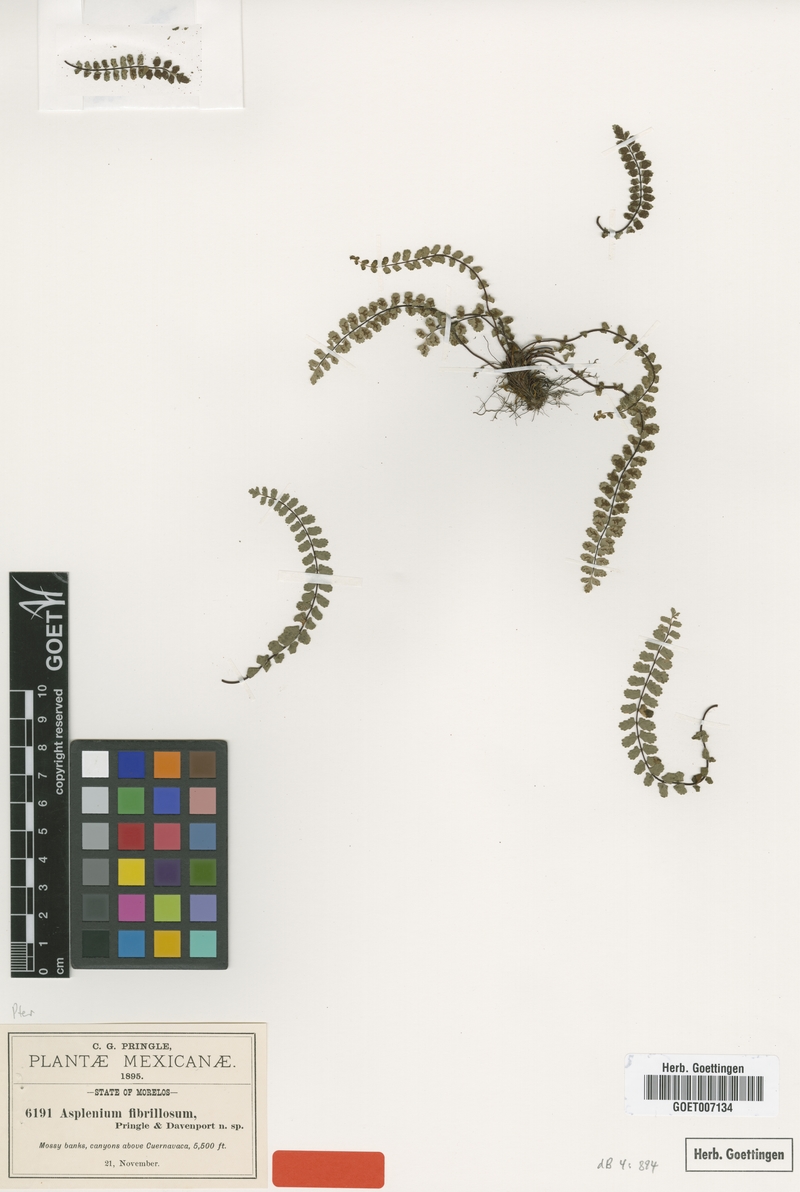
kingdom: Plantae
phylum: Tracheophyta
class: Polypodiopsida
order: Polypodiales
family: Aspleniaceae
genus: Asplenium
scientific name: Asplenium fibrillosum
